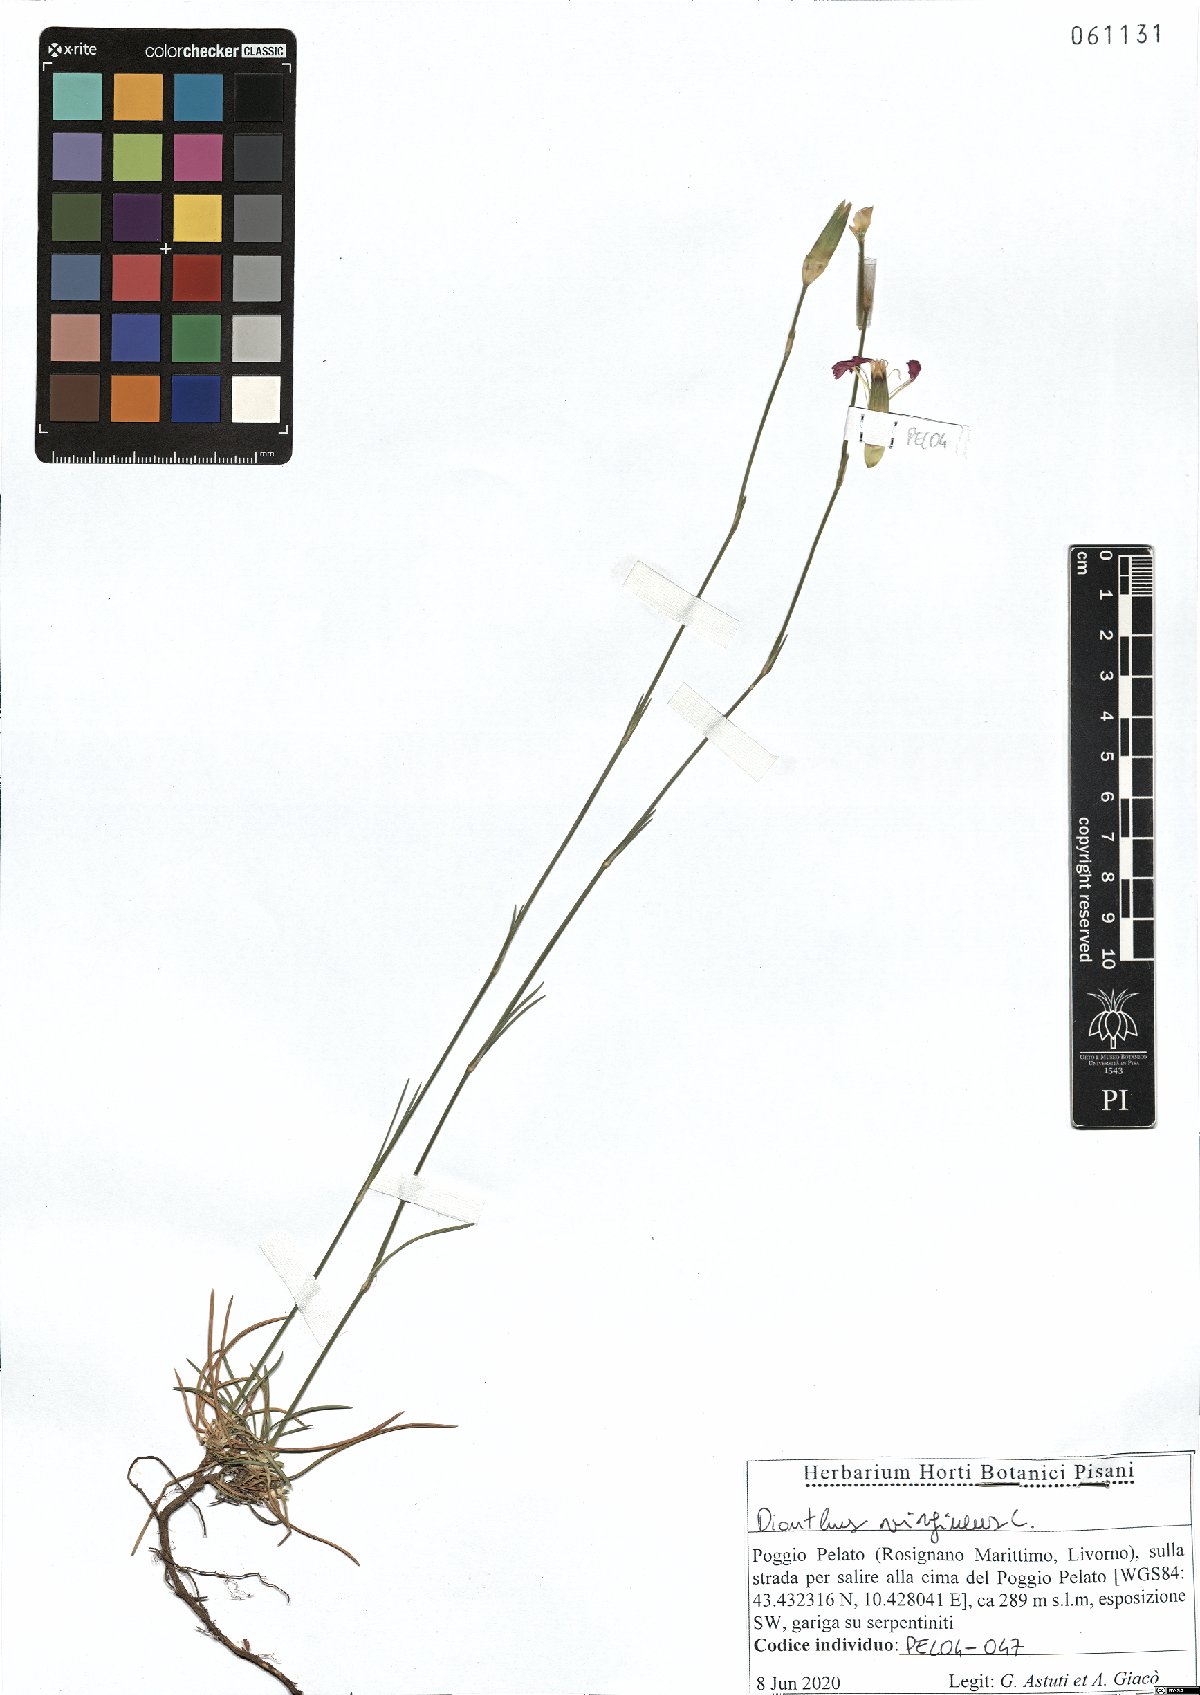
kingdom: Plantae
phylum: Tracheophyta
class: Magnoliopsida
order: Caryophyllales
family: Caryophyllaceae
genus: Dianthus
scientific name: Dianthus virgineus
